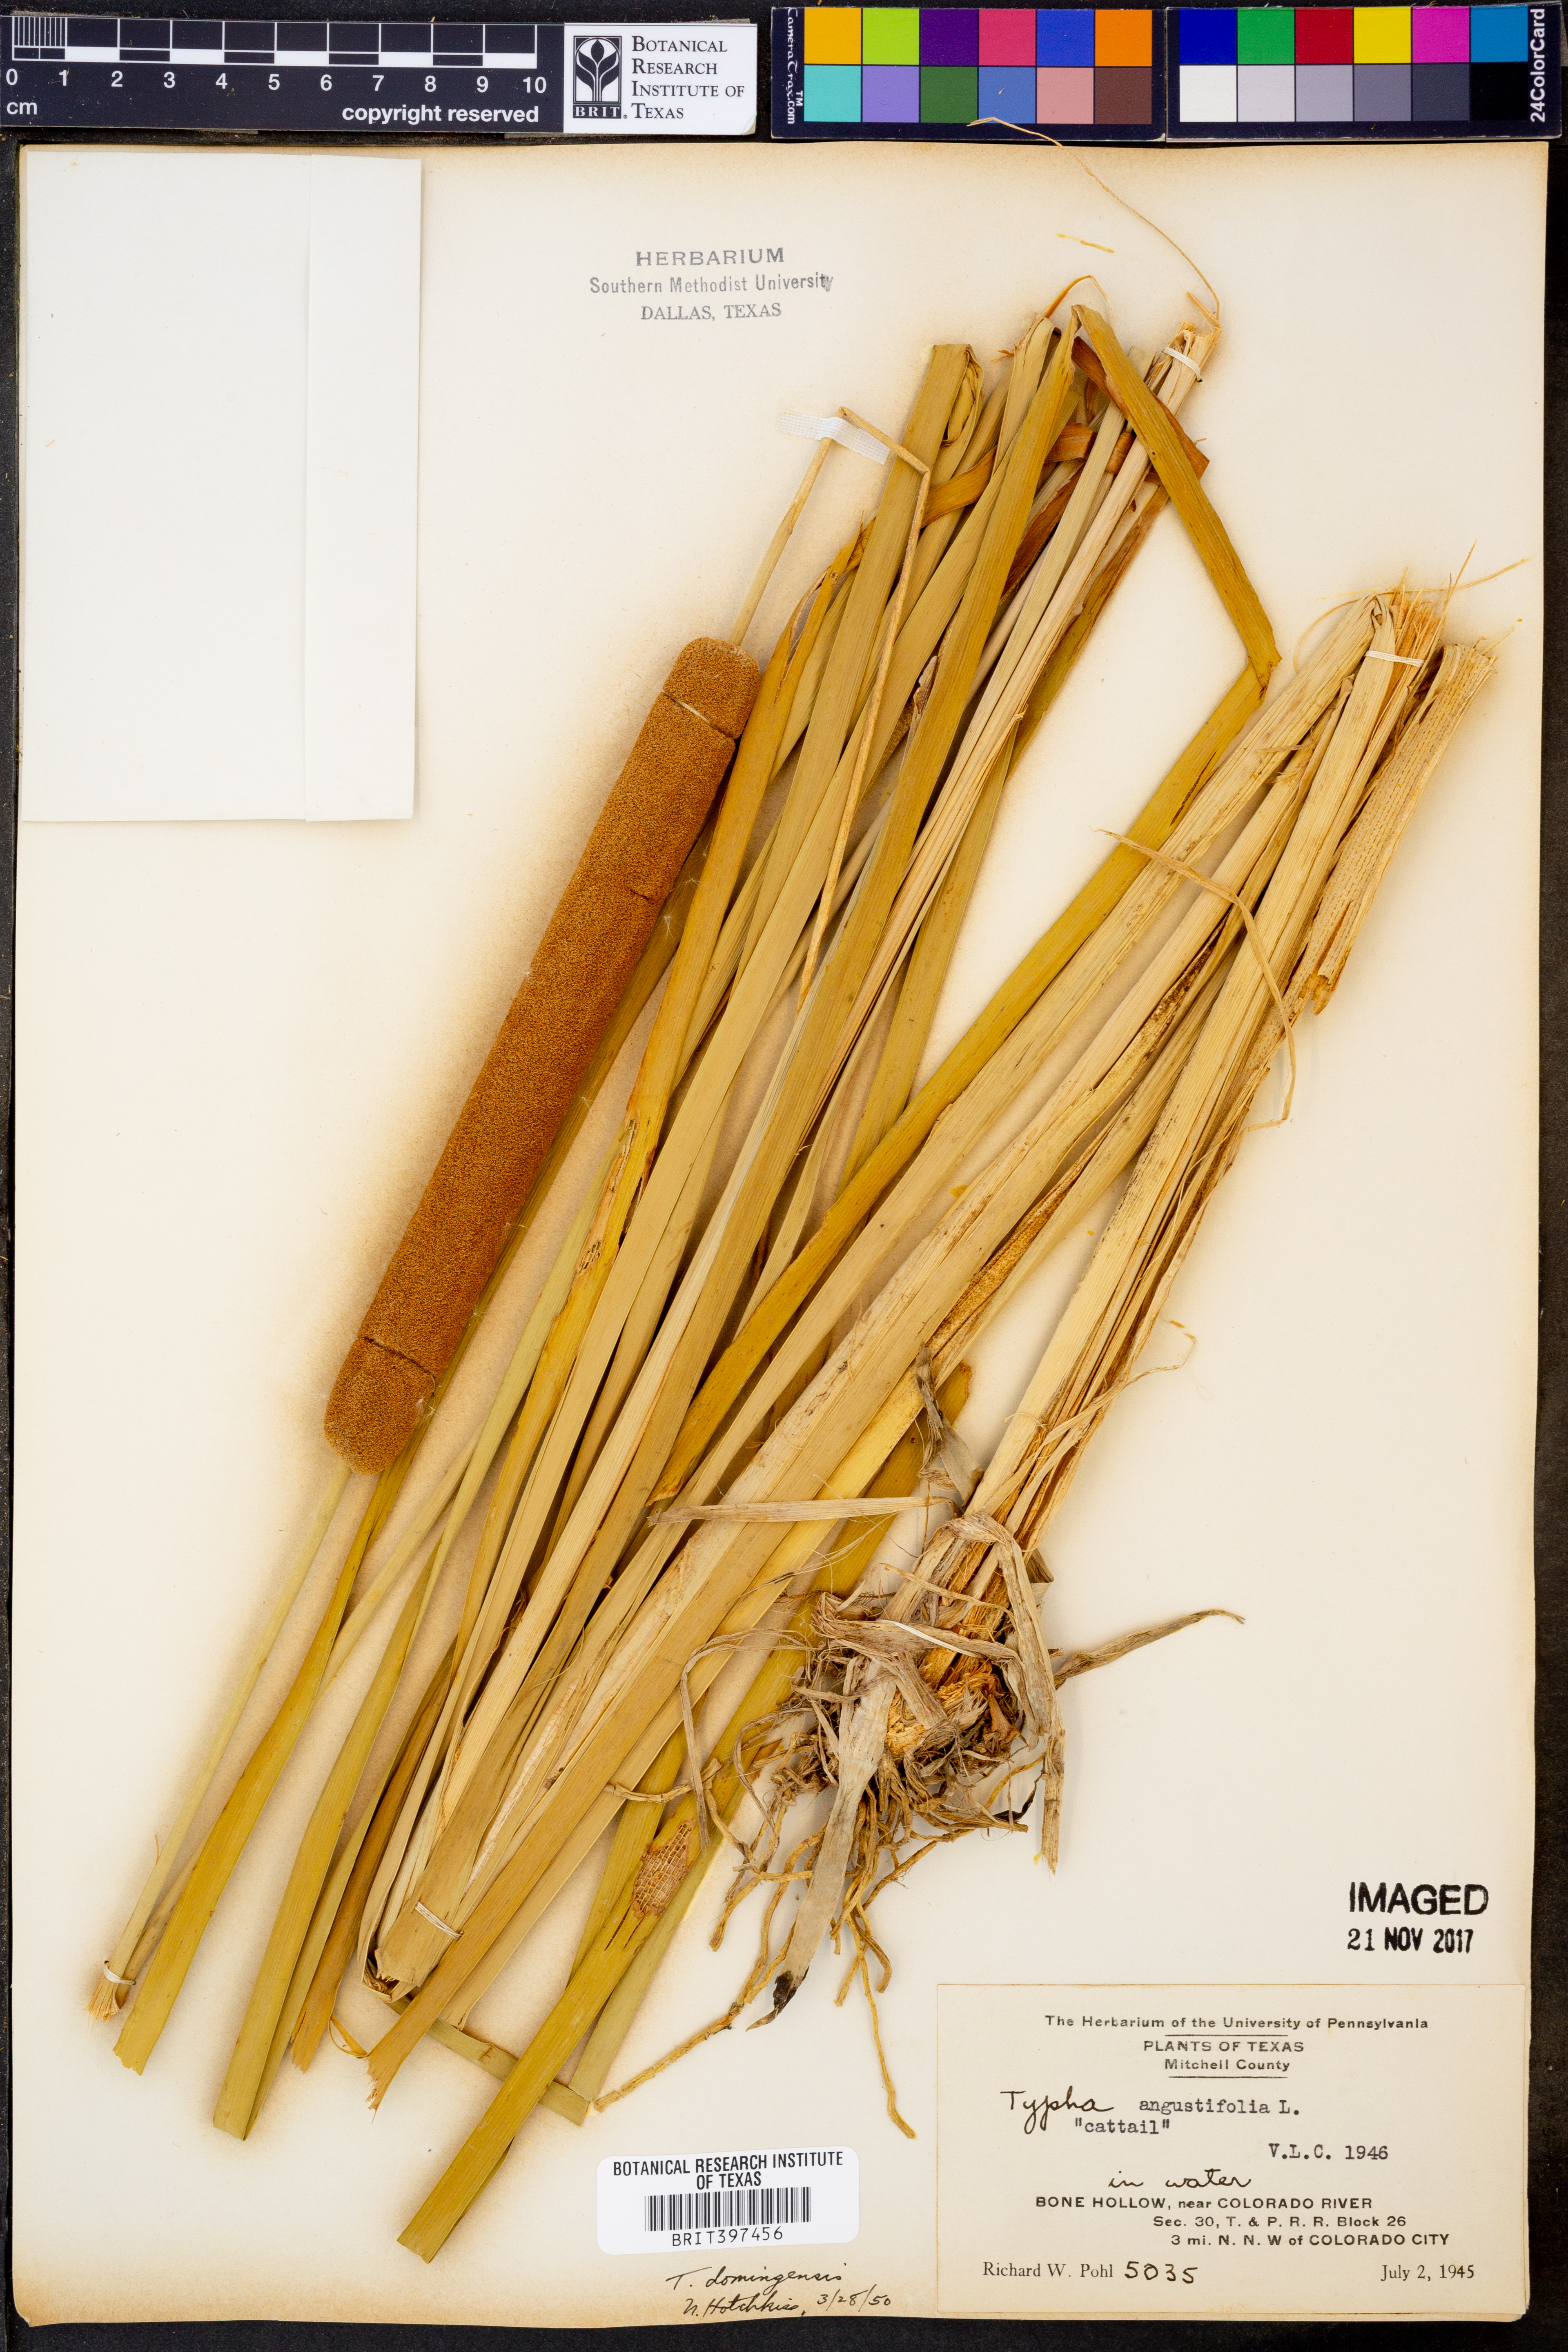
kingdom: Plantae
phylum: Tracheophyta
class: Liliopsida
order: Poales
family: Typhaceae
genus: Typha
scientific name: Typha domingensis
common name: Southern cattail
